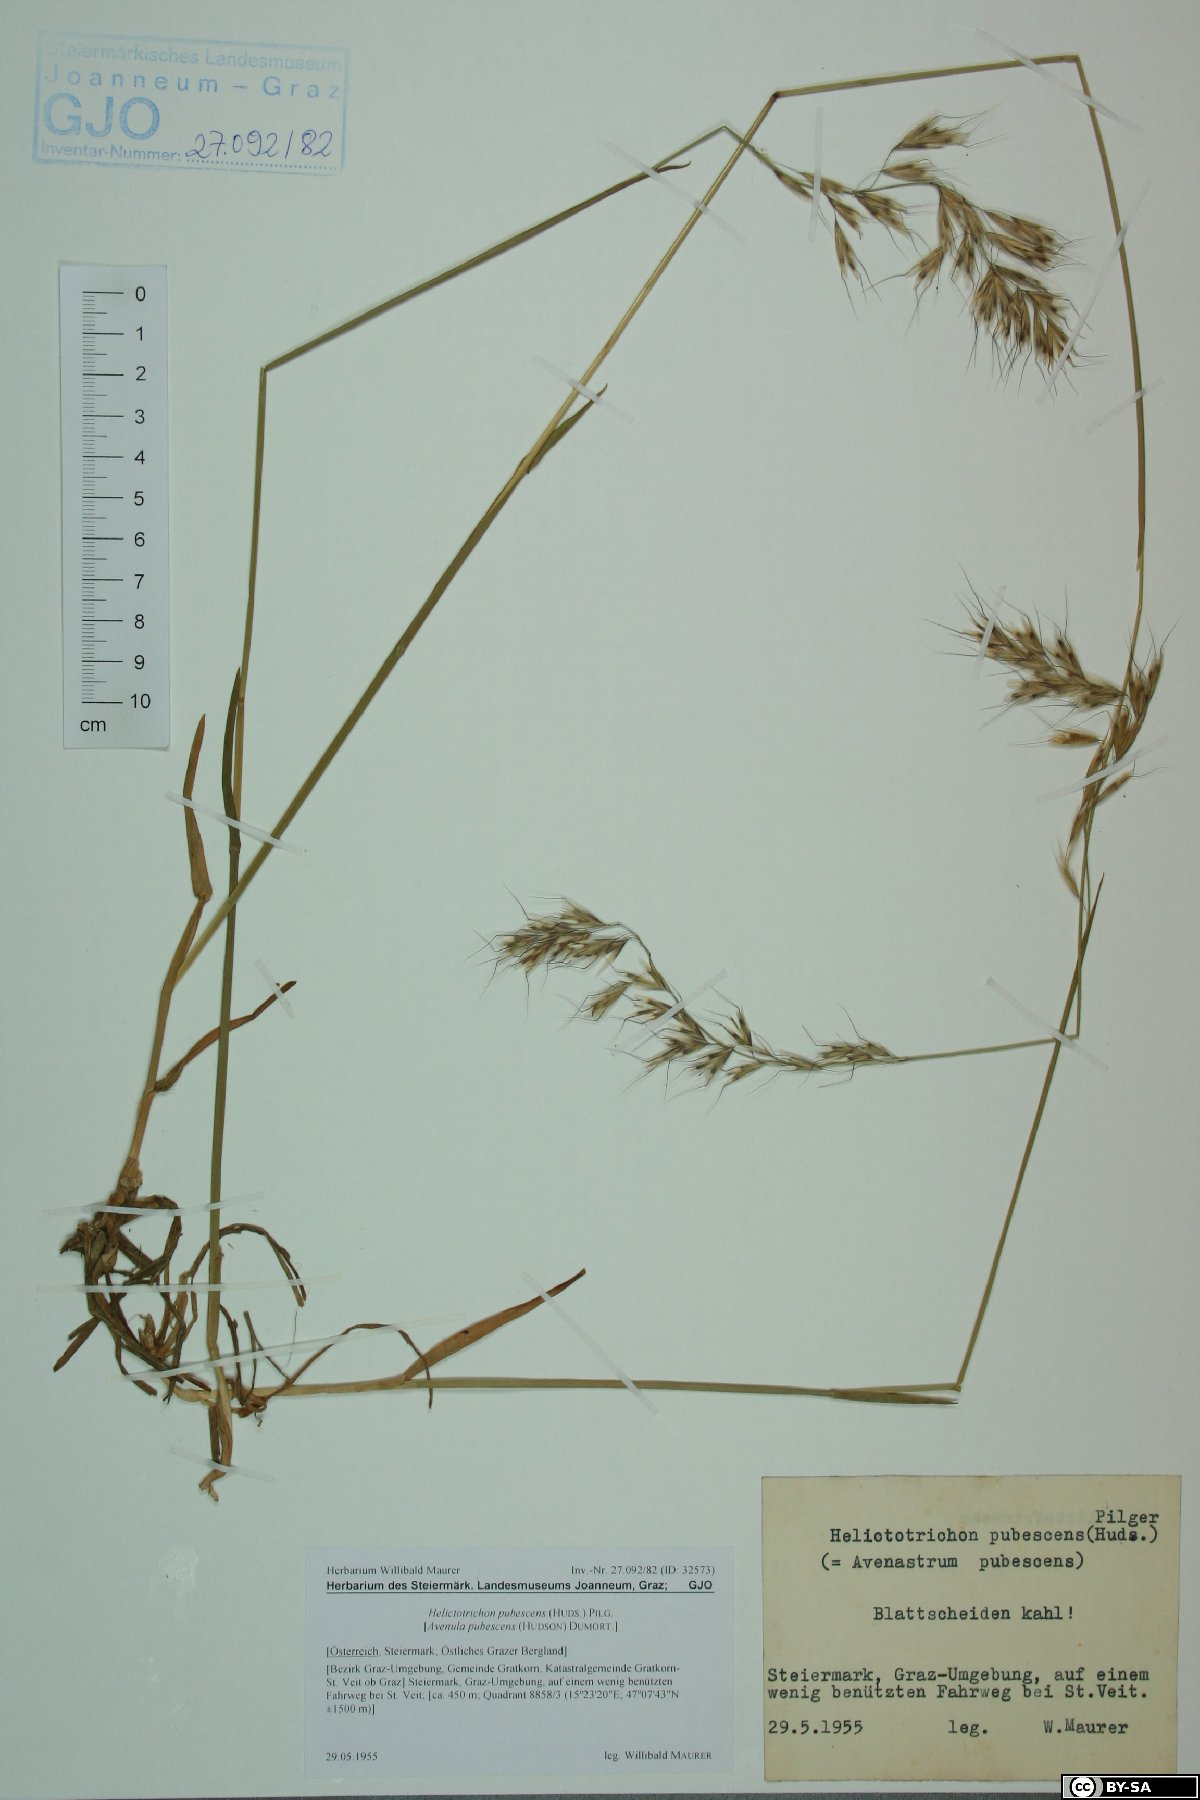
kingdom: Plantae
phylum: Tracheophyta
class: Liliopsida
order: Poales
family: Poaceae
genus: Avenula
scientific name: Avenula pubescens
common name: Downy alpine oatgrass
